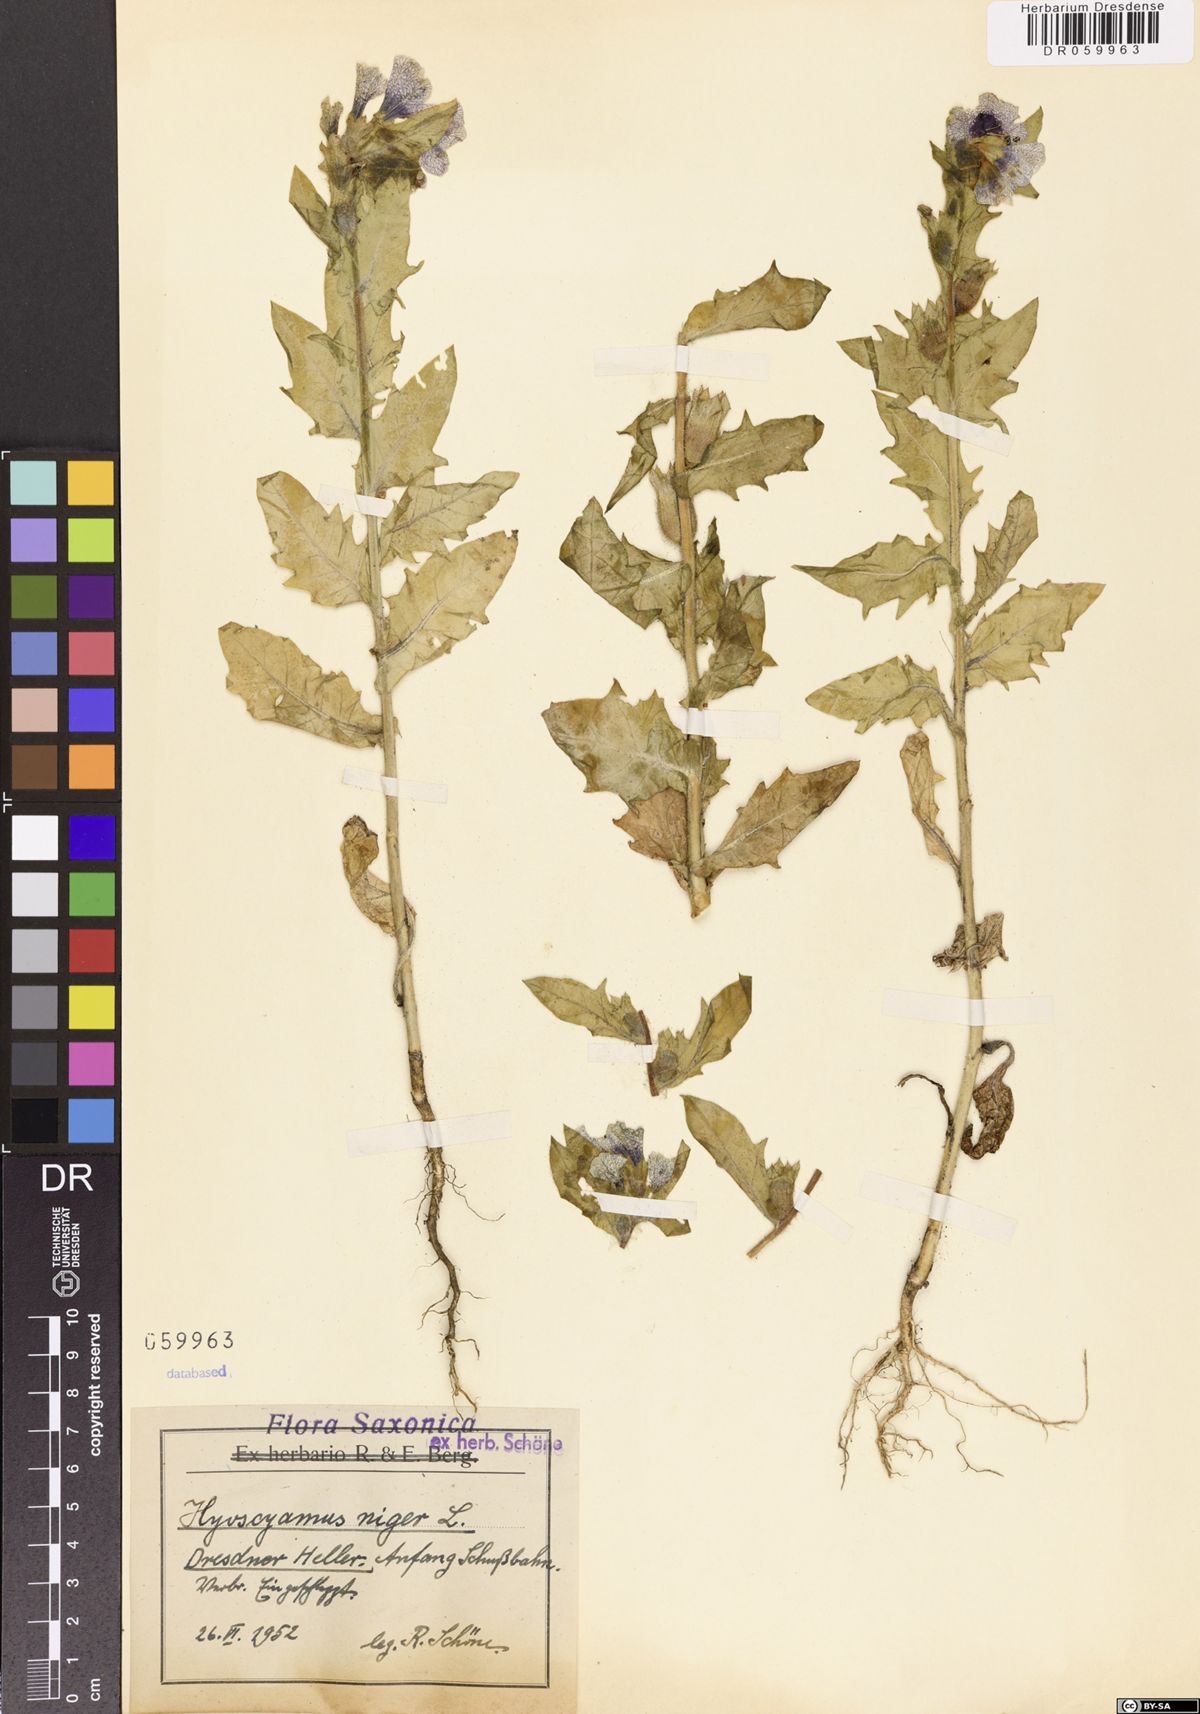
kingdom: Plantae
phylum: Tracheophyta
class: Magnoliopsida
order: Solanales
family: Solanaceae
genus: Hyoscyamus
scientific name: Hyoscyamus niger
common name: Henbane
